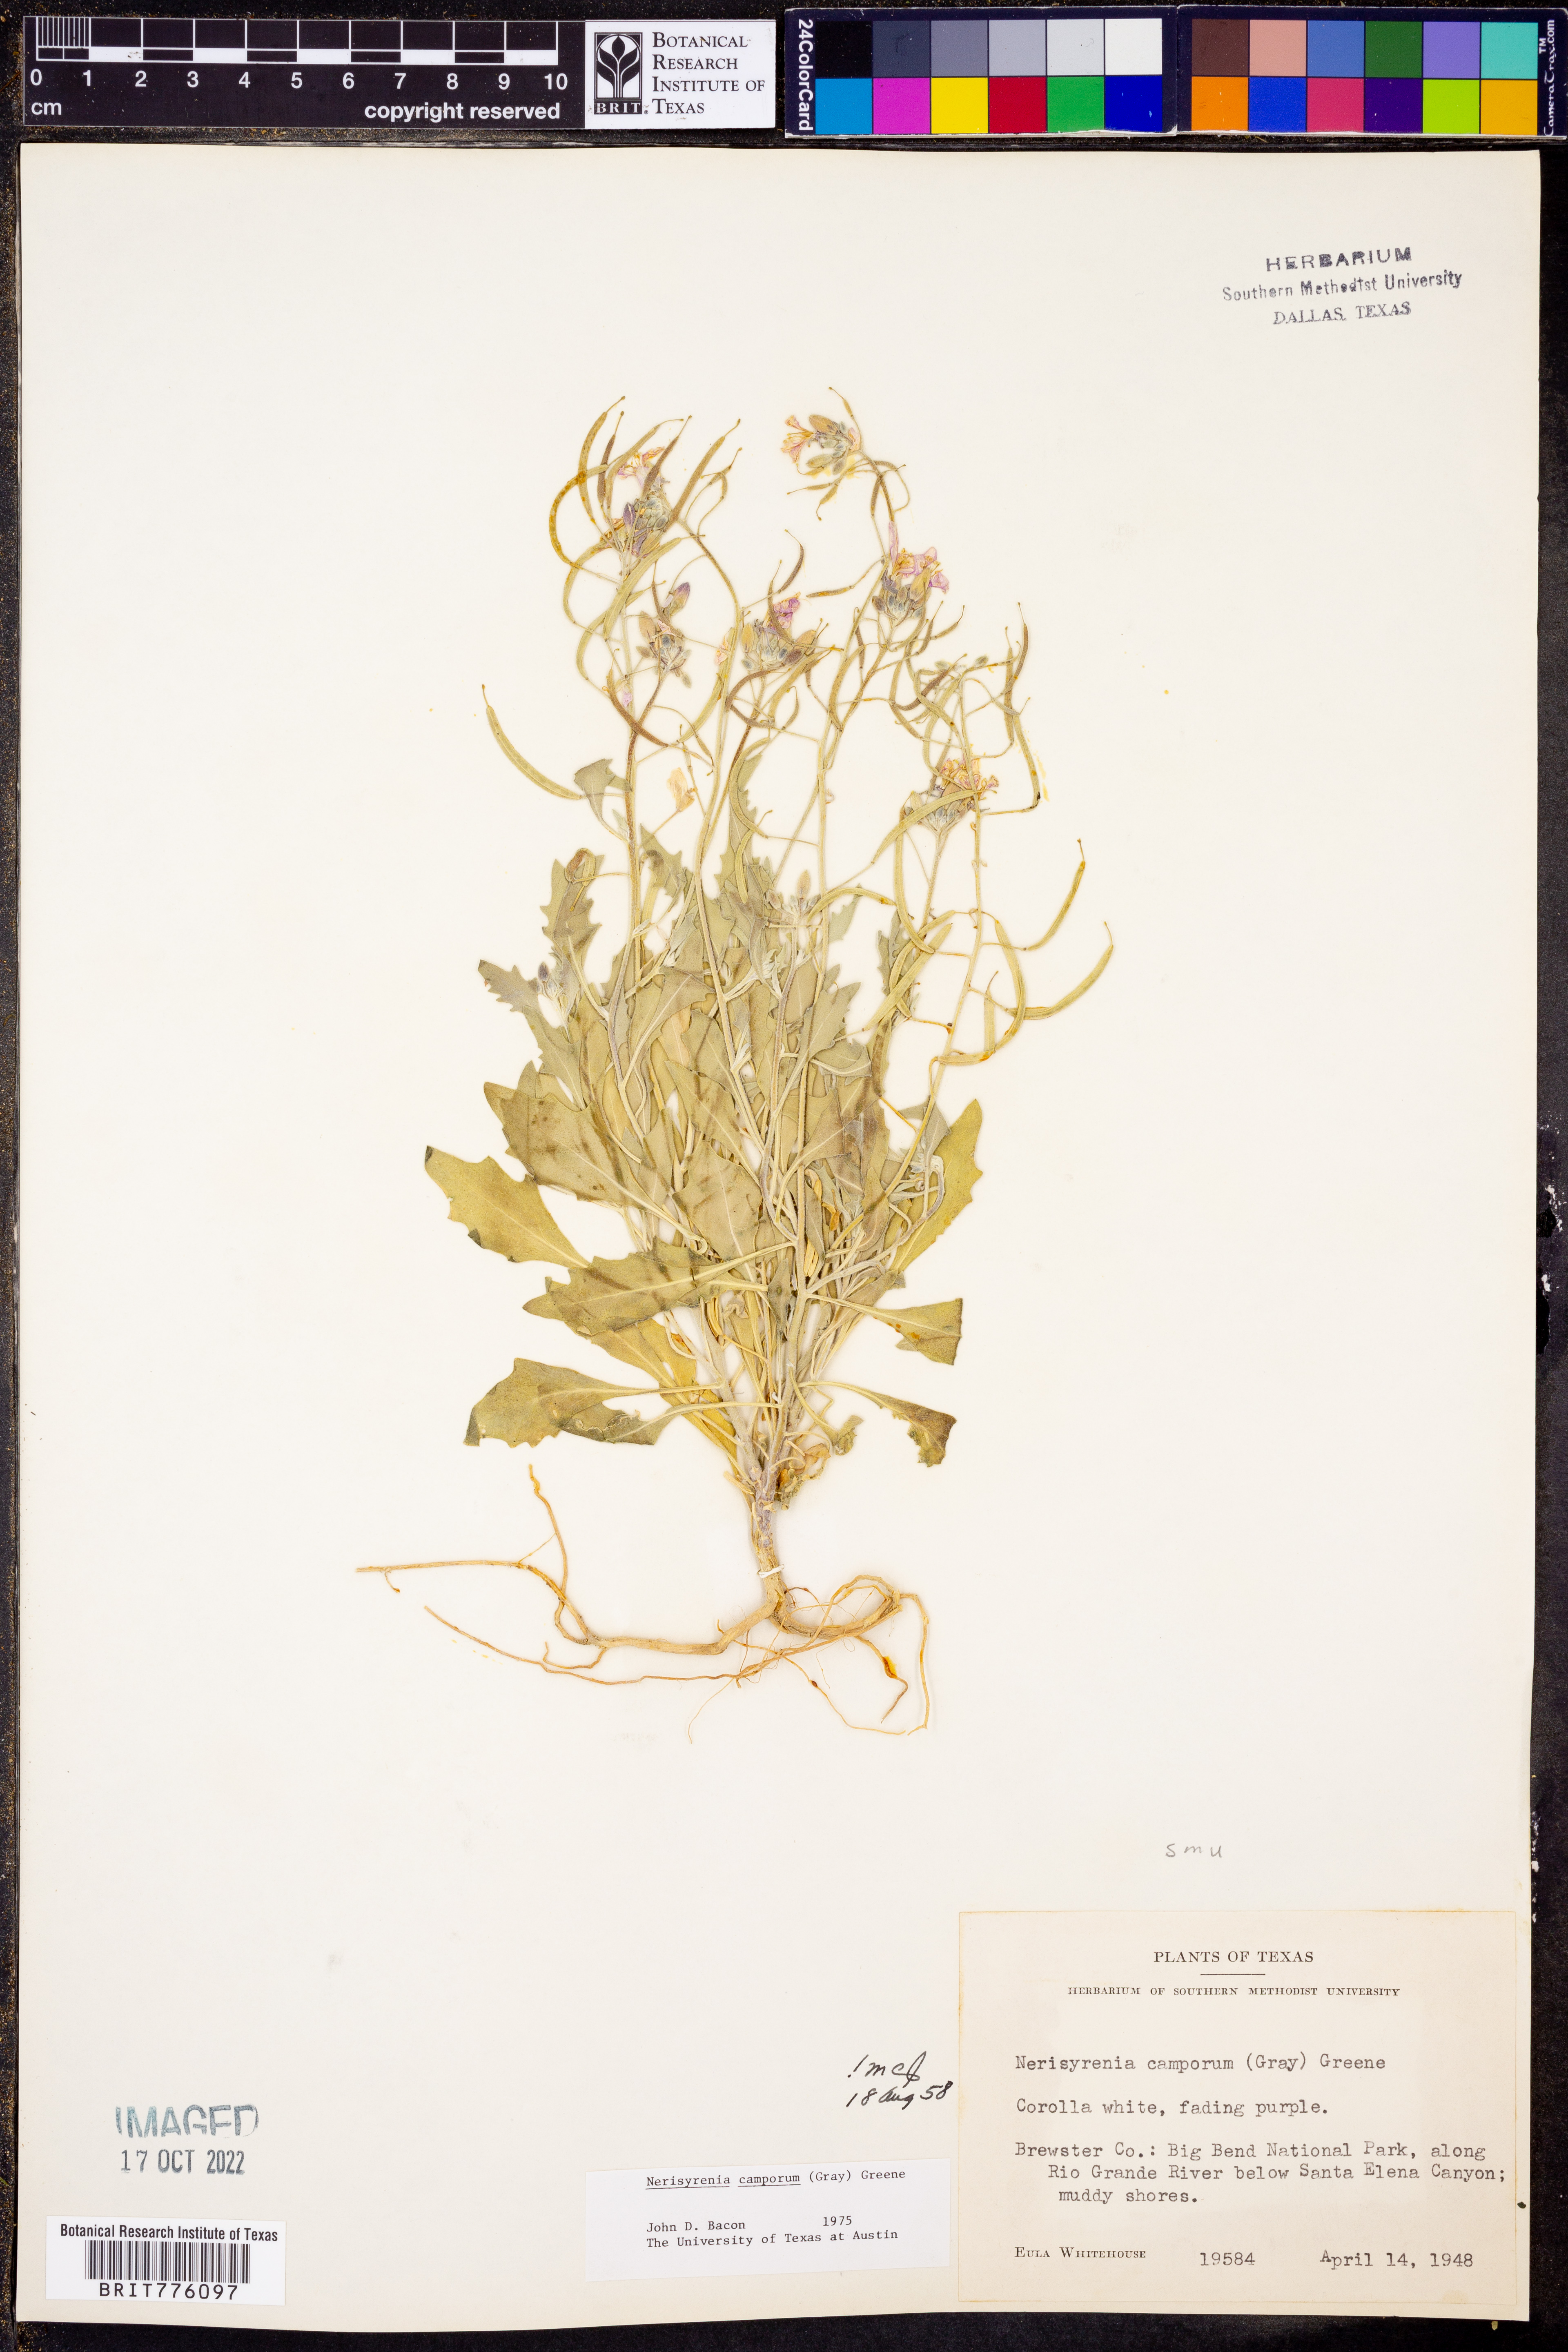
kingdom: Plantae
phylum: Tracheophyta
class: Magnoliopsida
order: Brassicales
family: Brassicaceae
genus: Nerisyrenia
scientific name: Nerisyrenia camporum
